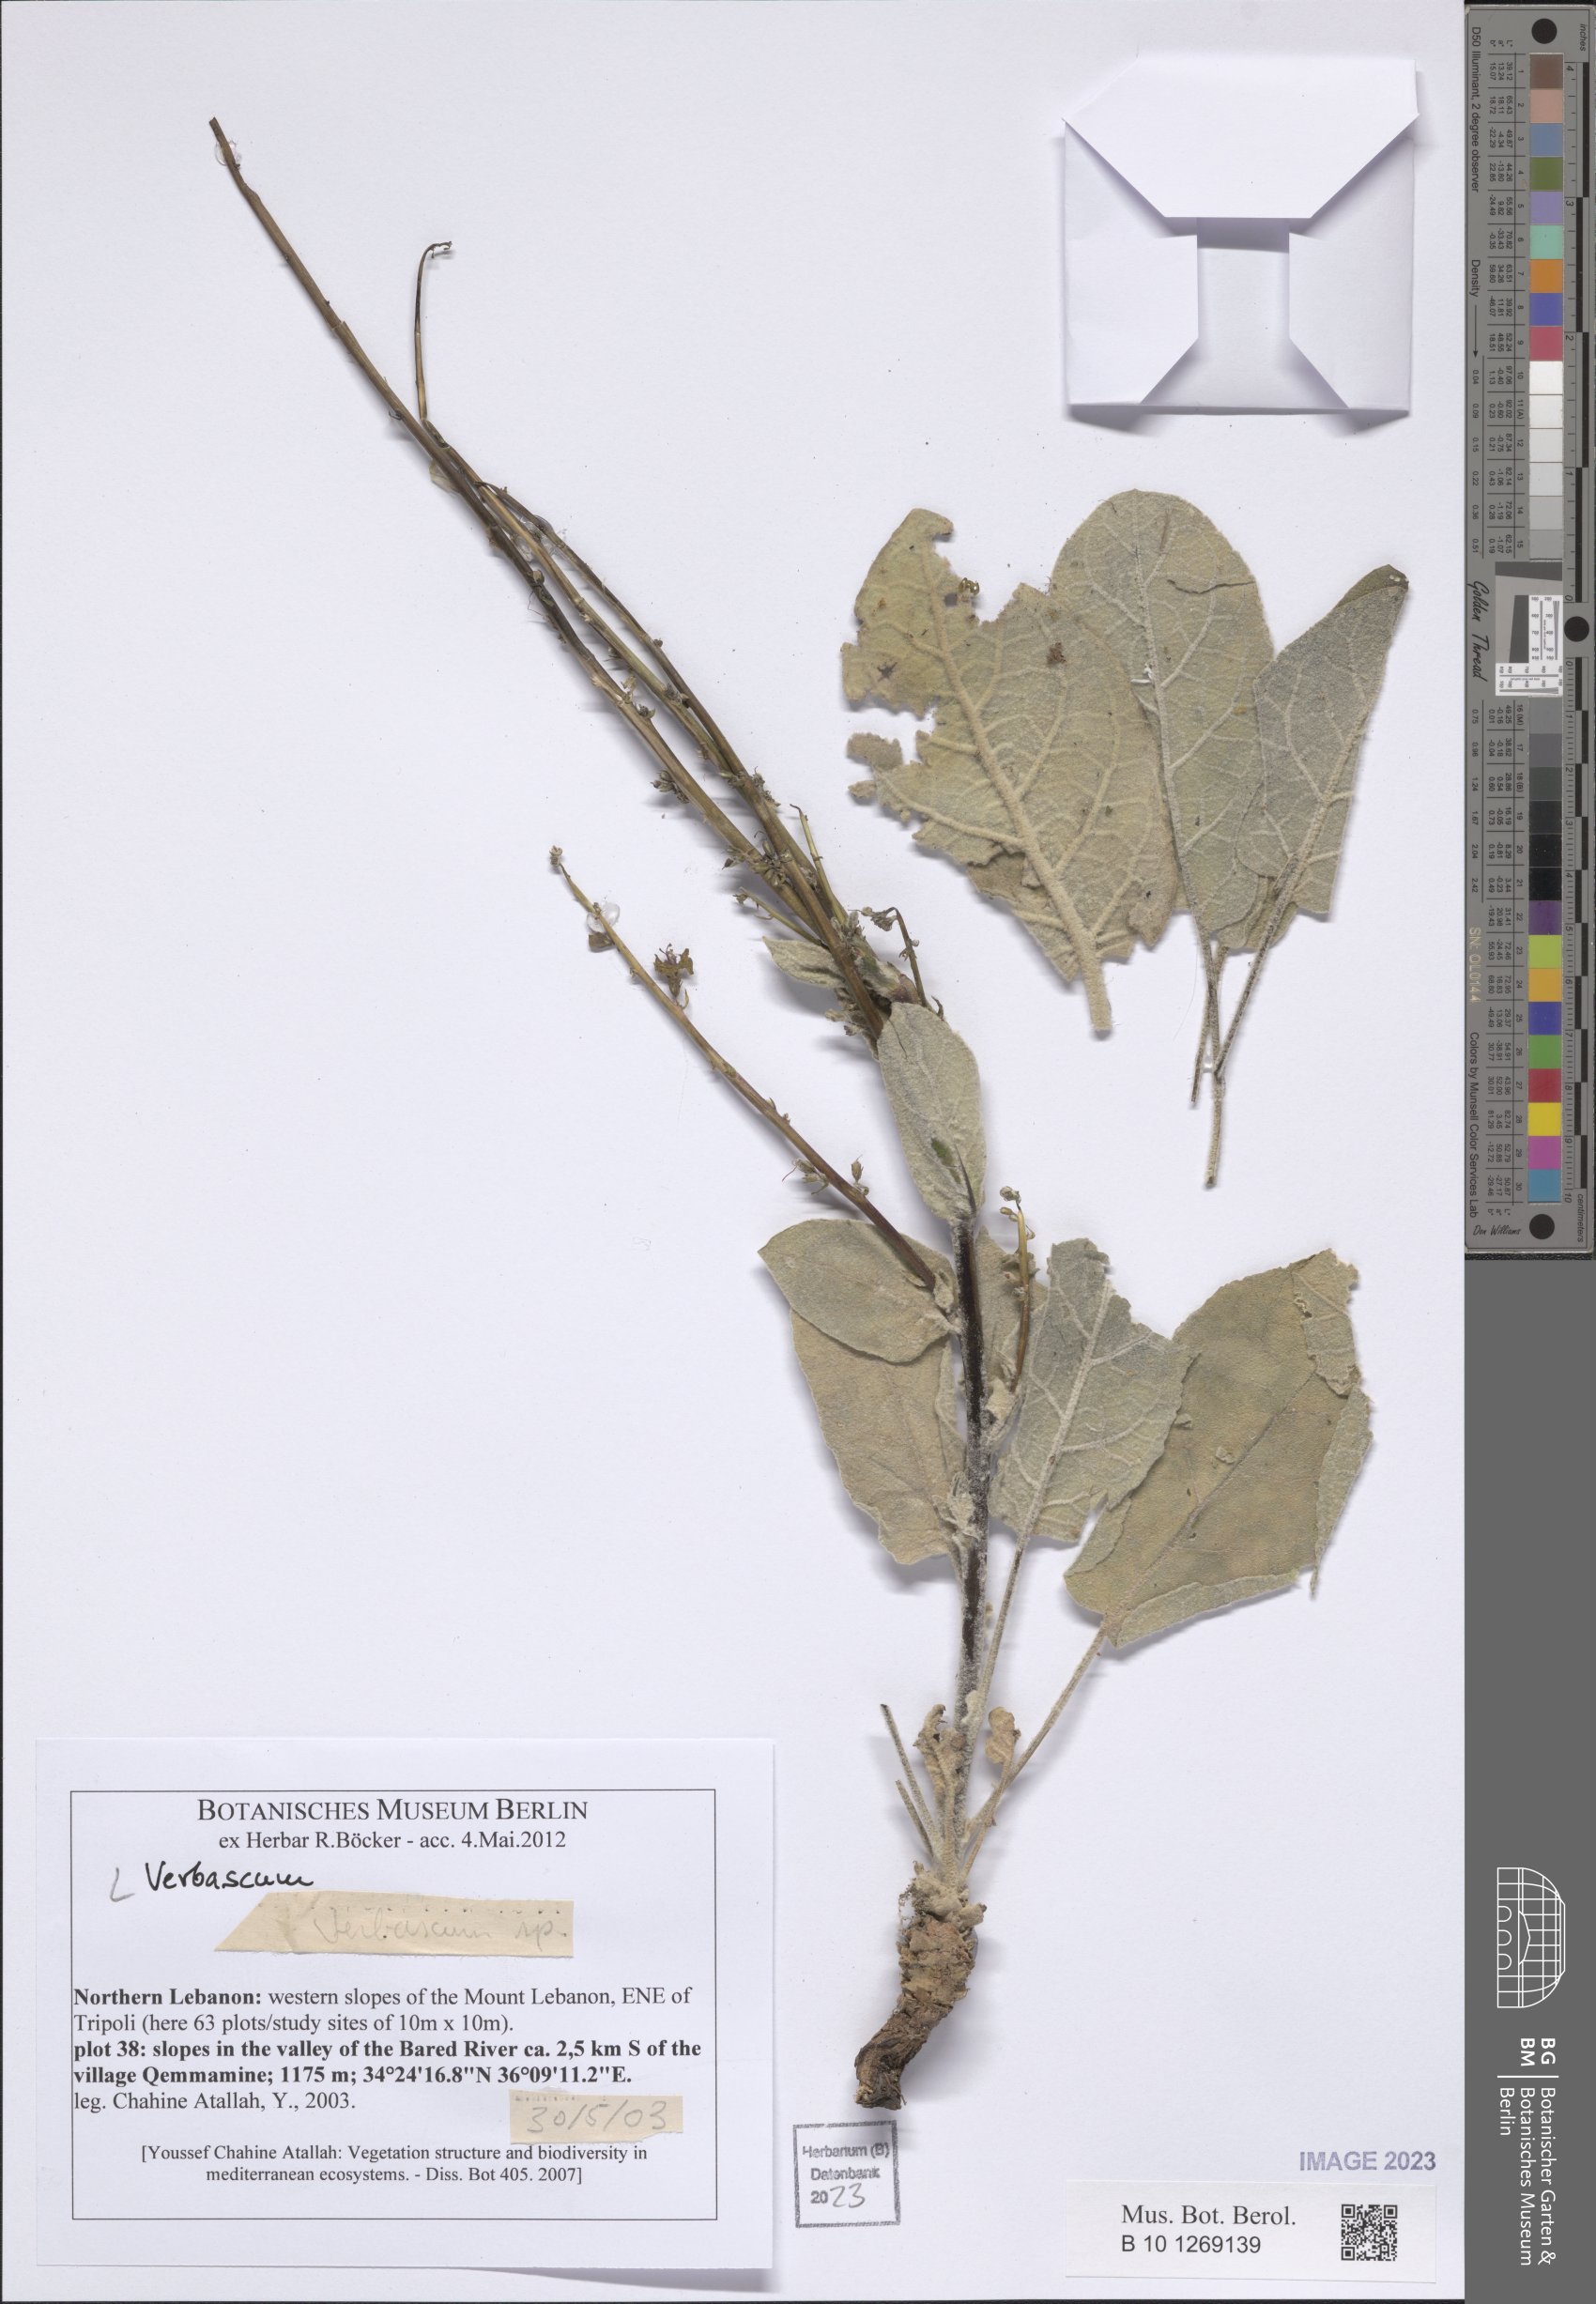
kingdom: Plantae
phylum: Tracheophyta
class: Magnoliopsida
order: Lamiales
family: Scrophulariaceae
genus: Verbascum
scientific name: Verbascum
